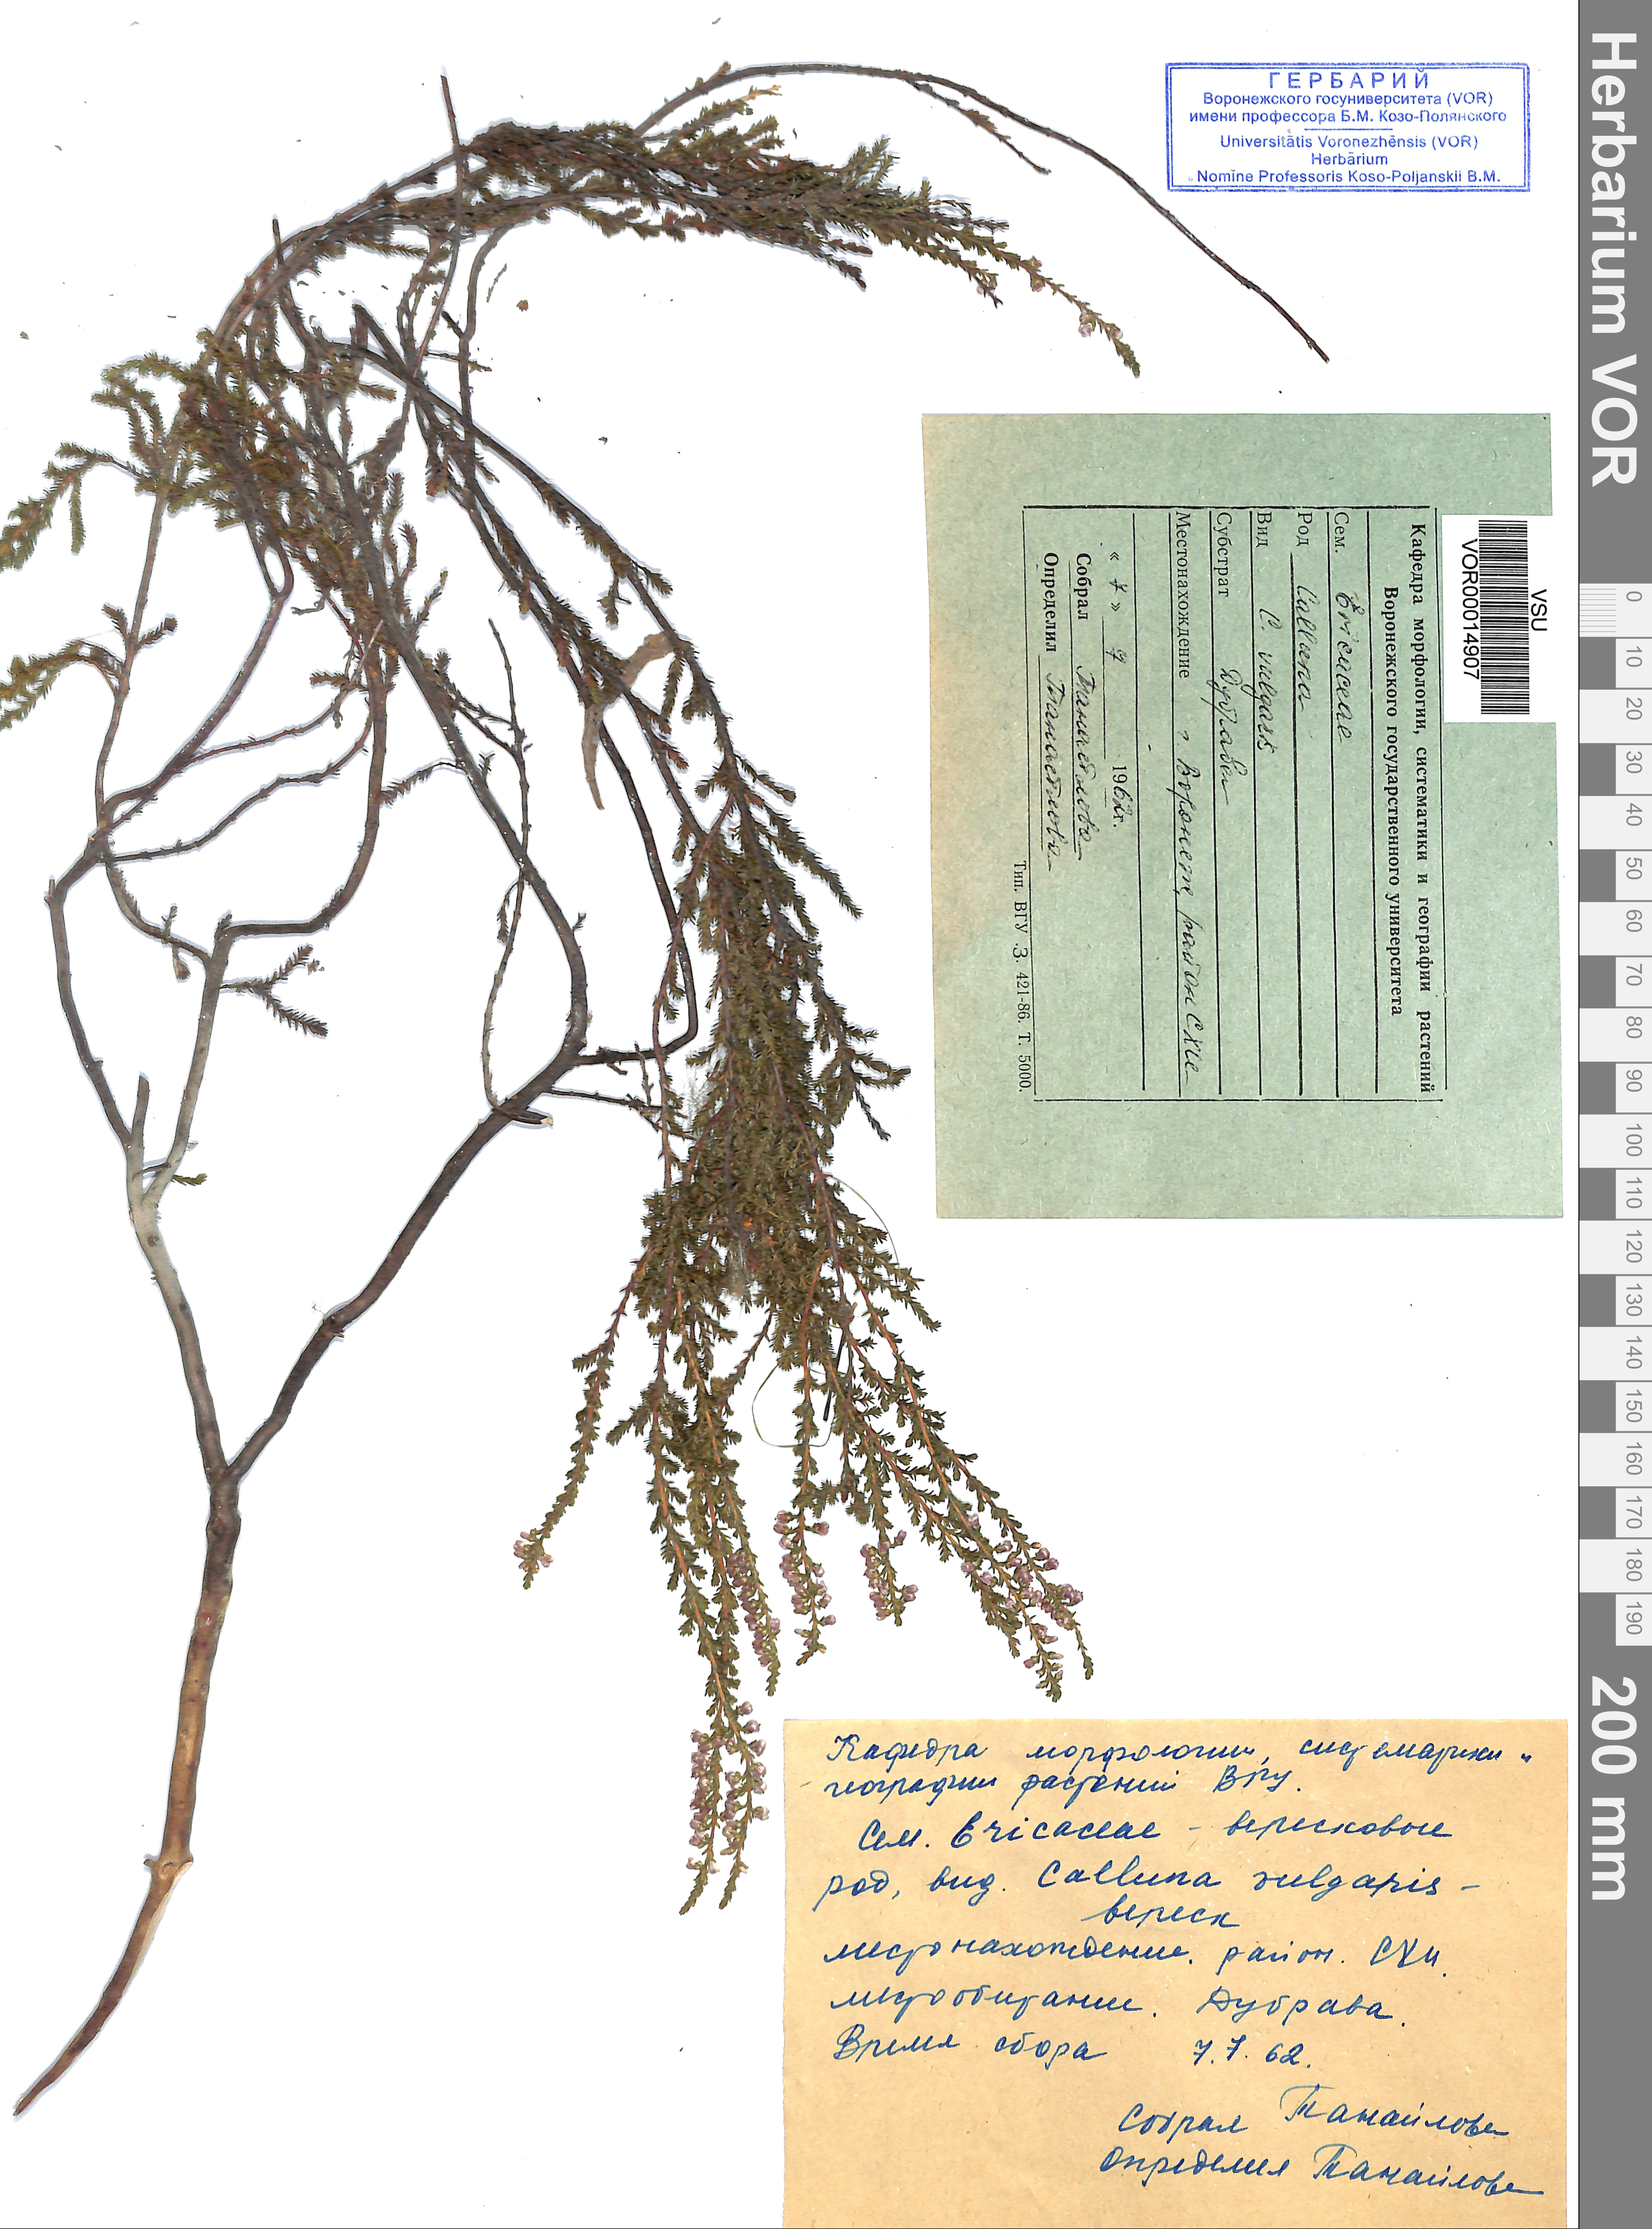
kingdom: Plantae
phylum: Tracheophyta
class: Magnoliopsida
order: Ericales
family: Ericaceae
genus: Calluna
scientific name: Calluna vulgaris
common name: Heather
